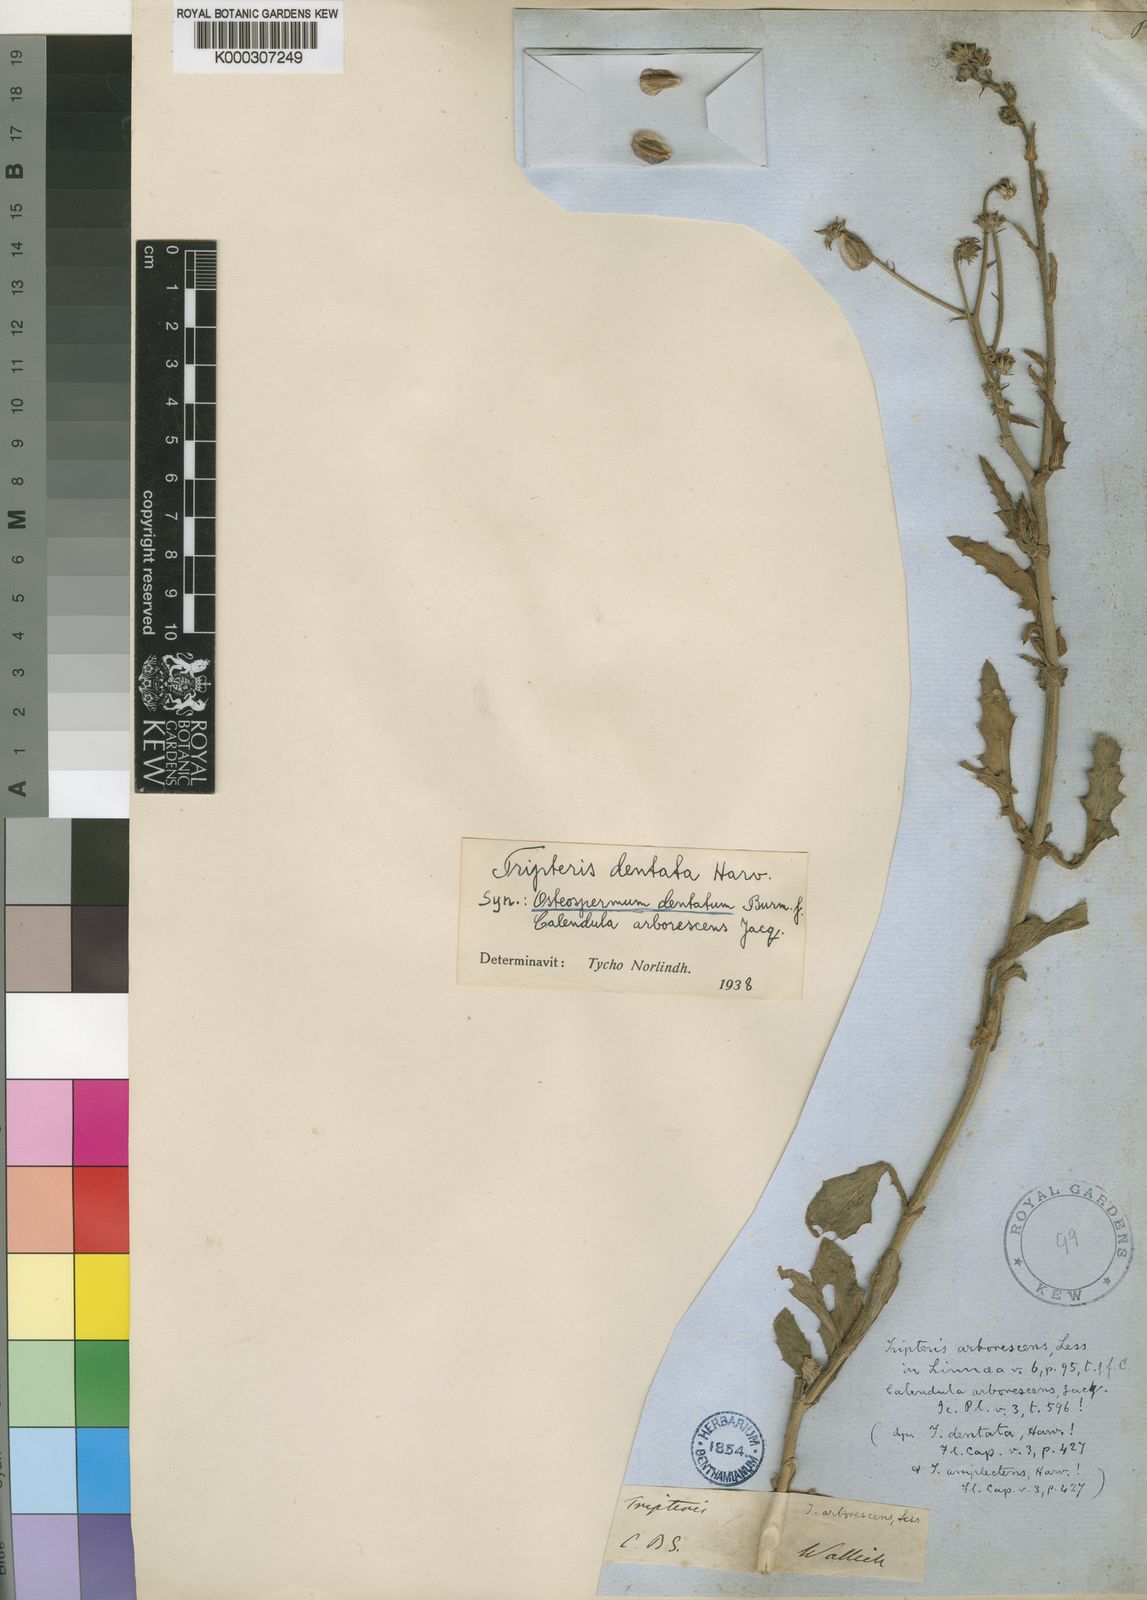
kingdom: Plantae
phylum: Tracheophyta
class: Magnoliopsida
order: Asterales
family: Asteraceae
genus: Osteospermum
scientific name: Osteospermum dentatum
